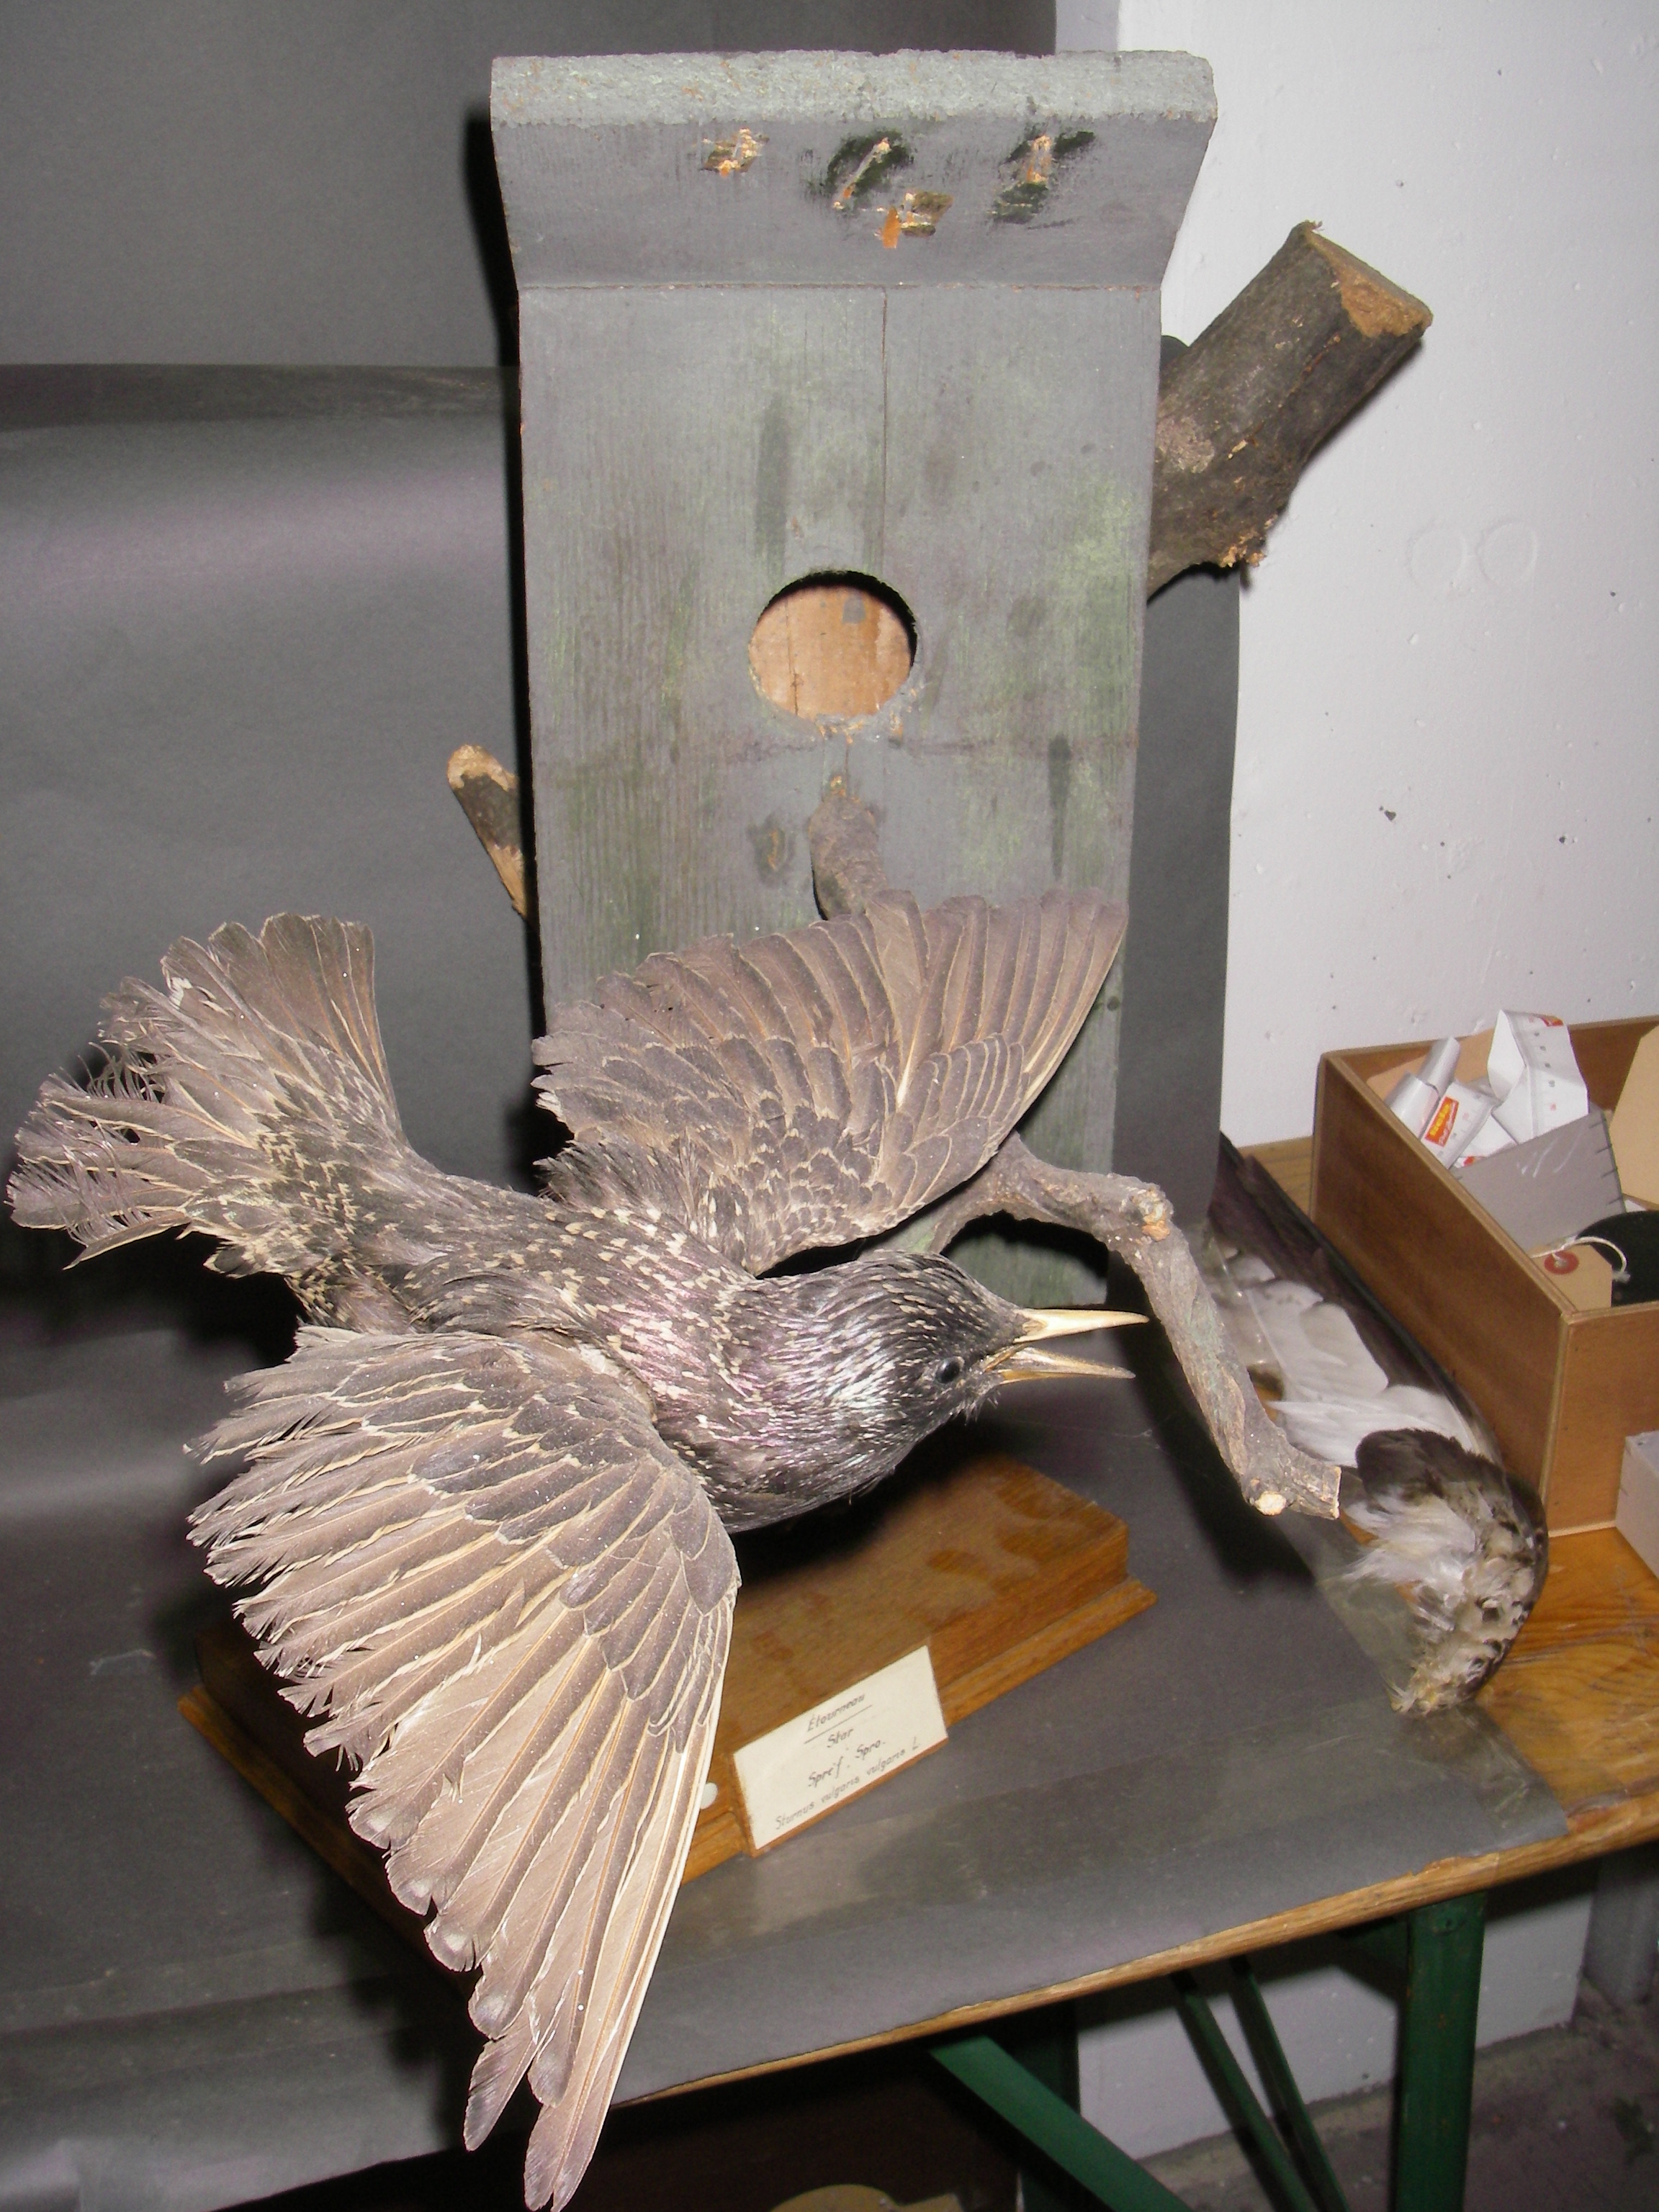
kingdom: Animalia
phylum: Chordata
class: Aves
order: Passeriformes
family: Sturnidae
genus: Sturnus
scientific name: Sturnus vulgaris
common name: Common starling
